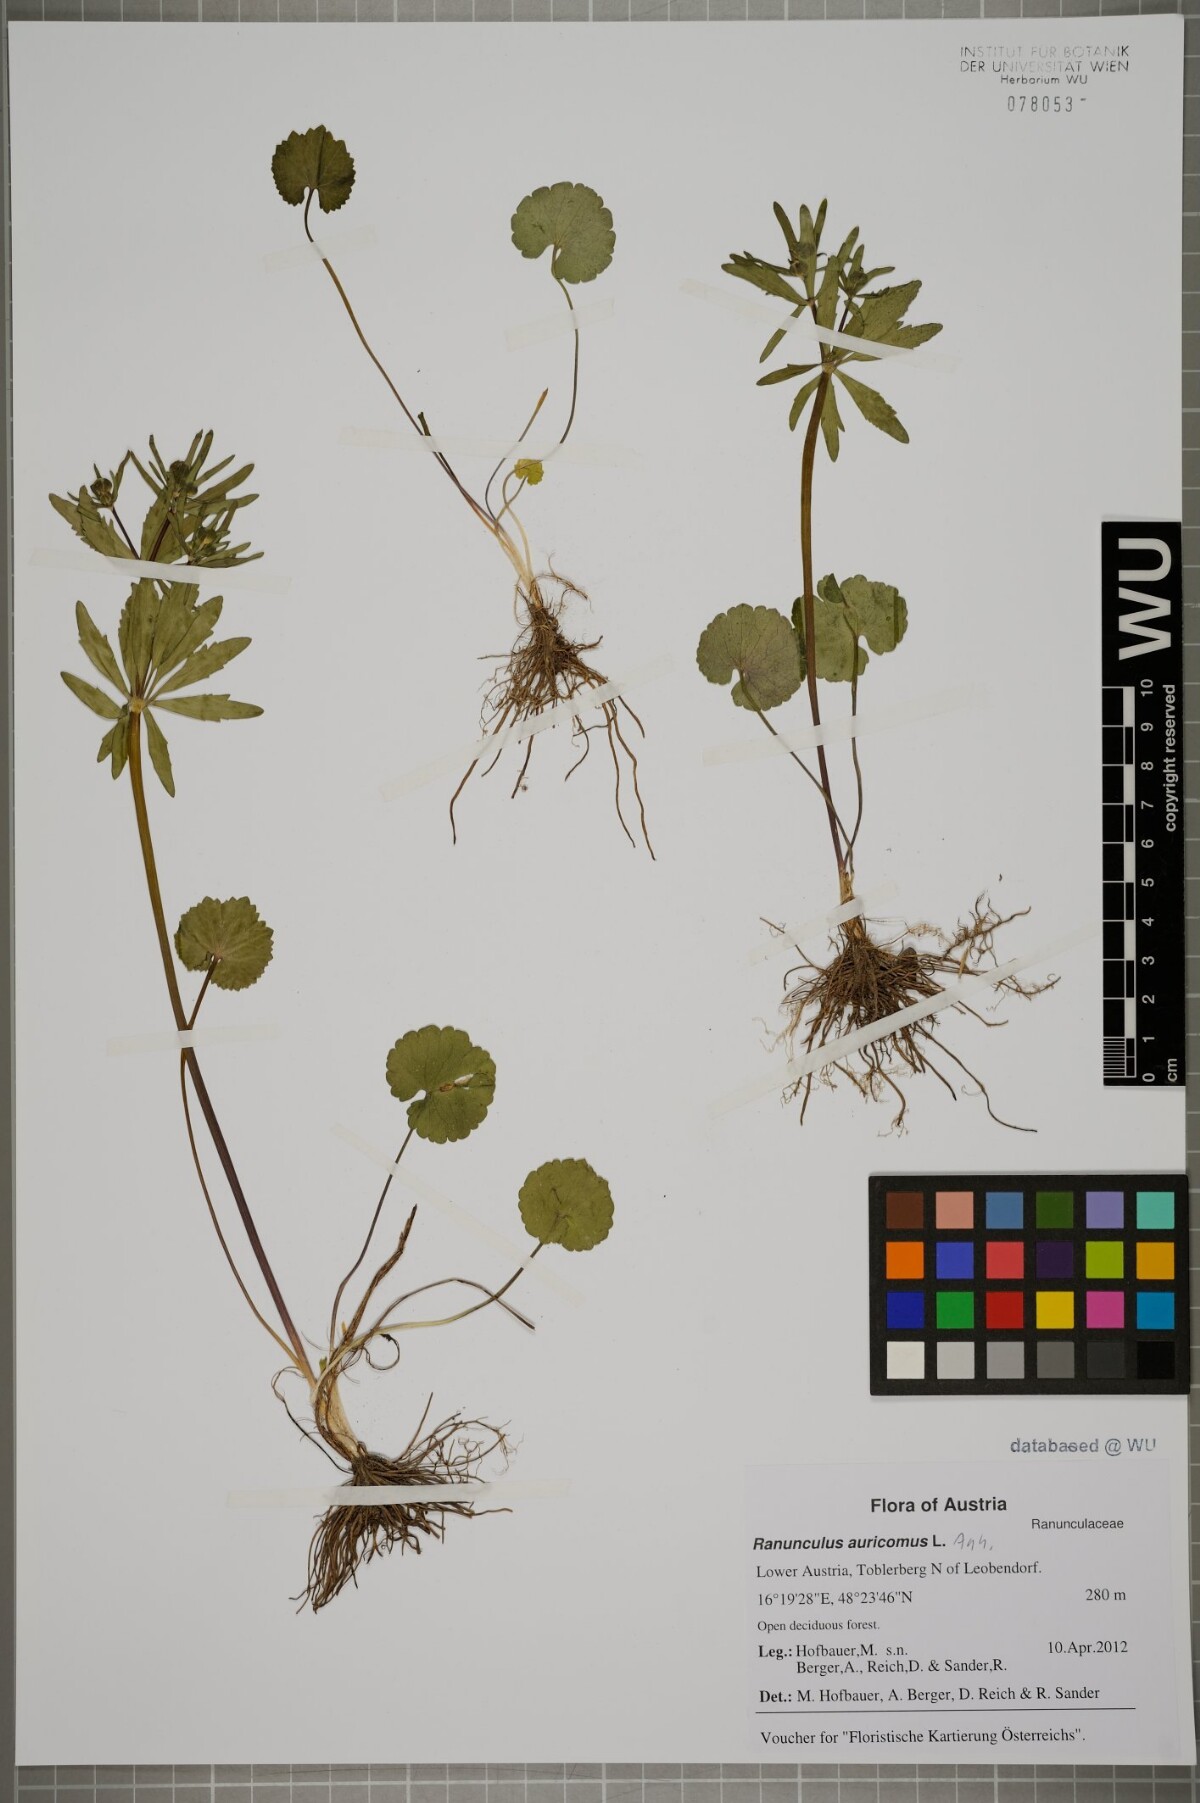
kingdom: Plantae
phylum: Tracheophyta
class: Magnoliopsida
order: Ranunculales
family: Ranunculaceae
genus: Ranunculus
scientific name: Ranunculus auricomus
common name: Goldilocks buttercup
